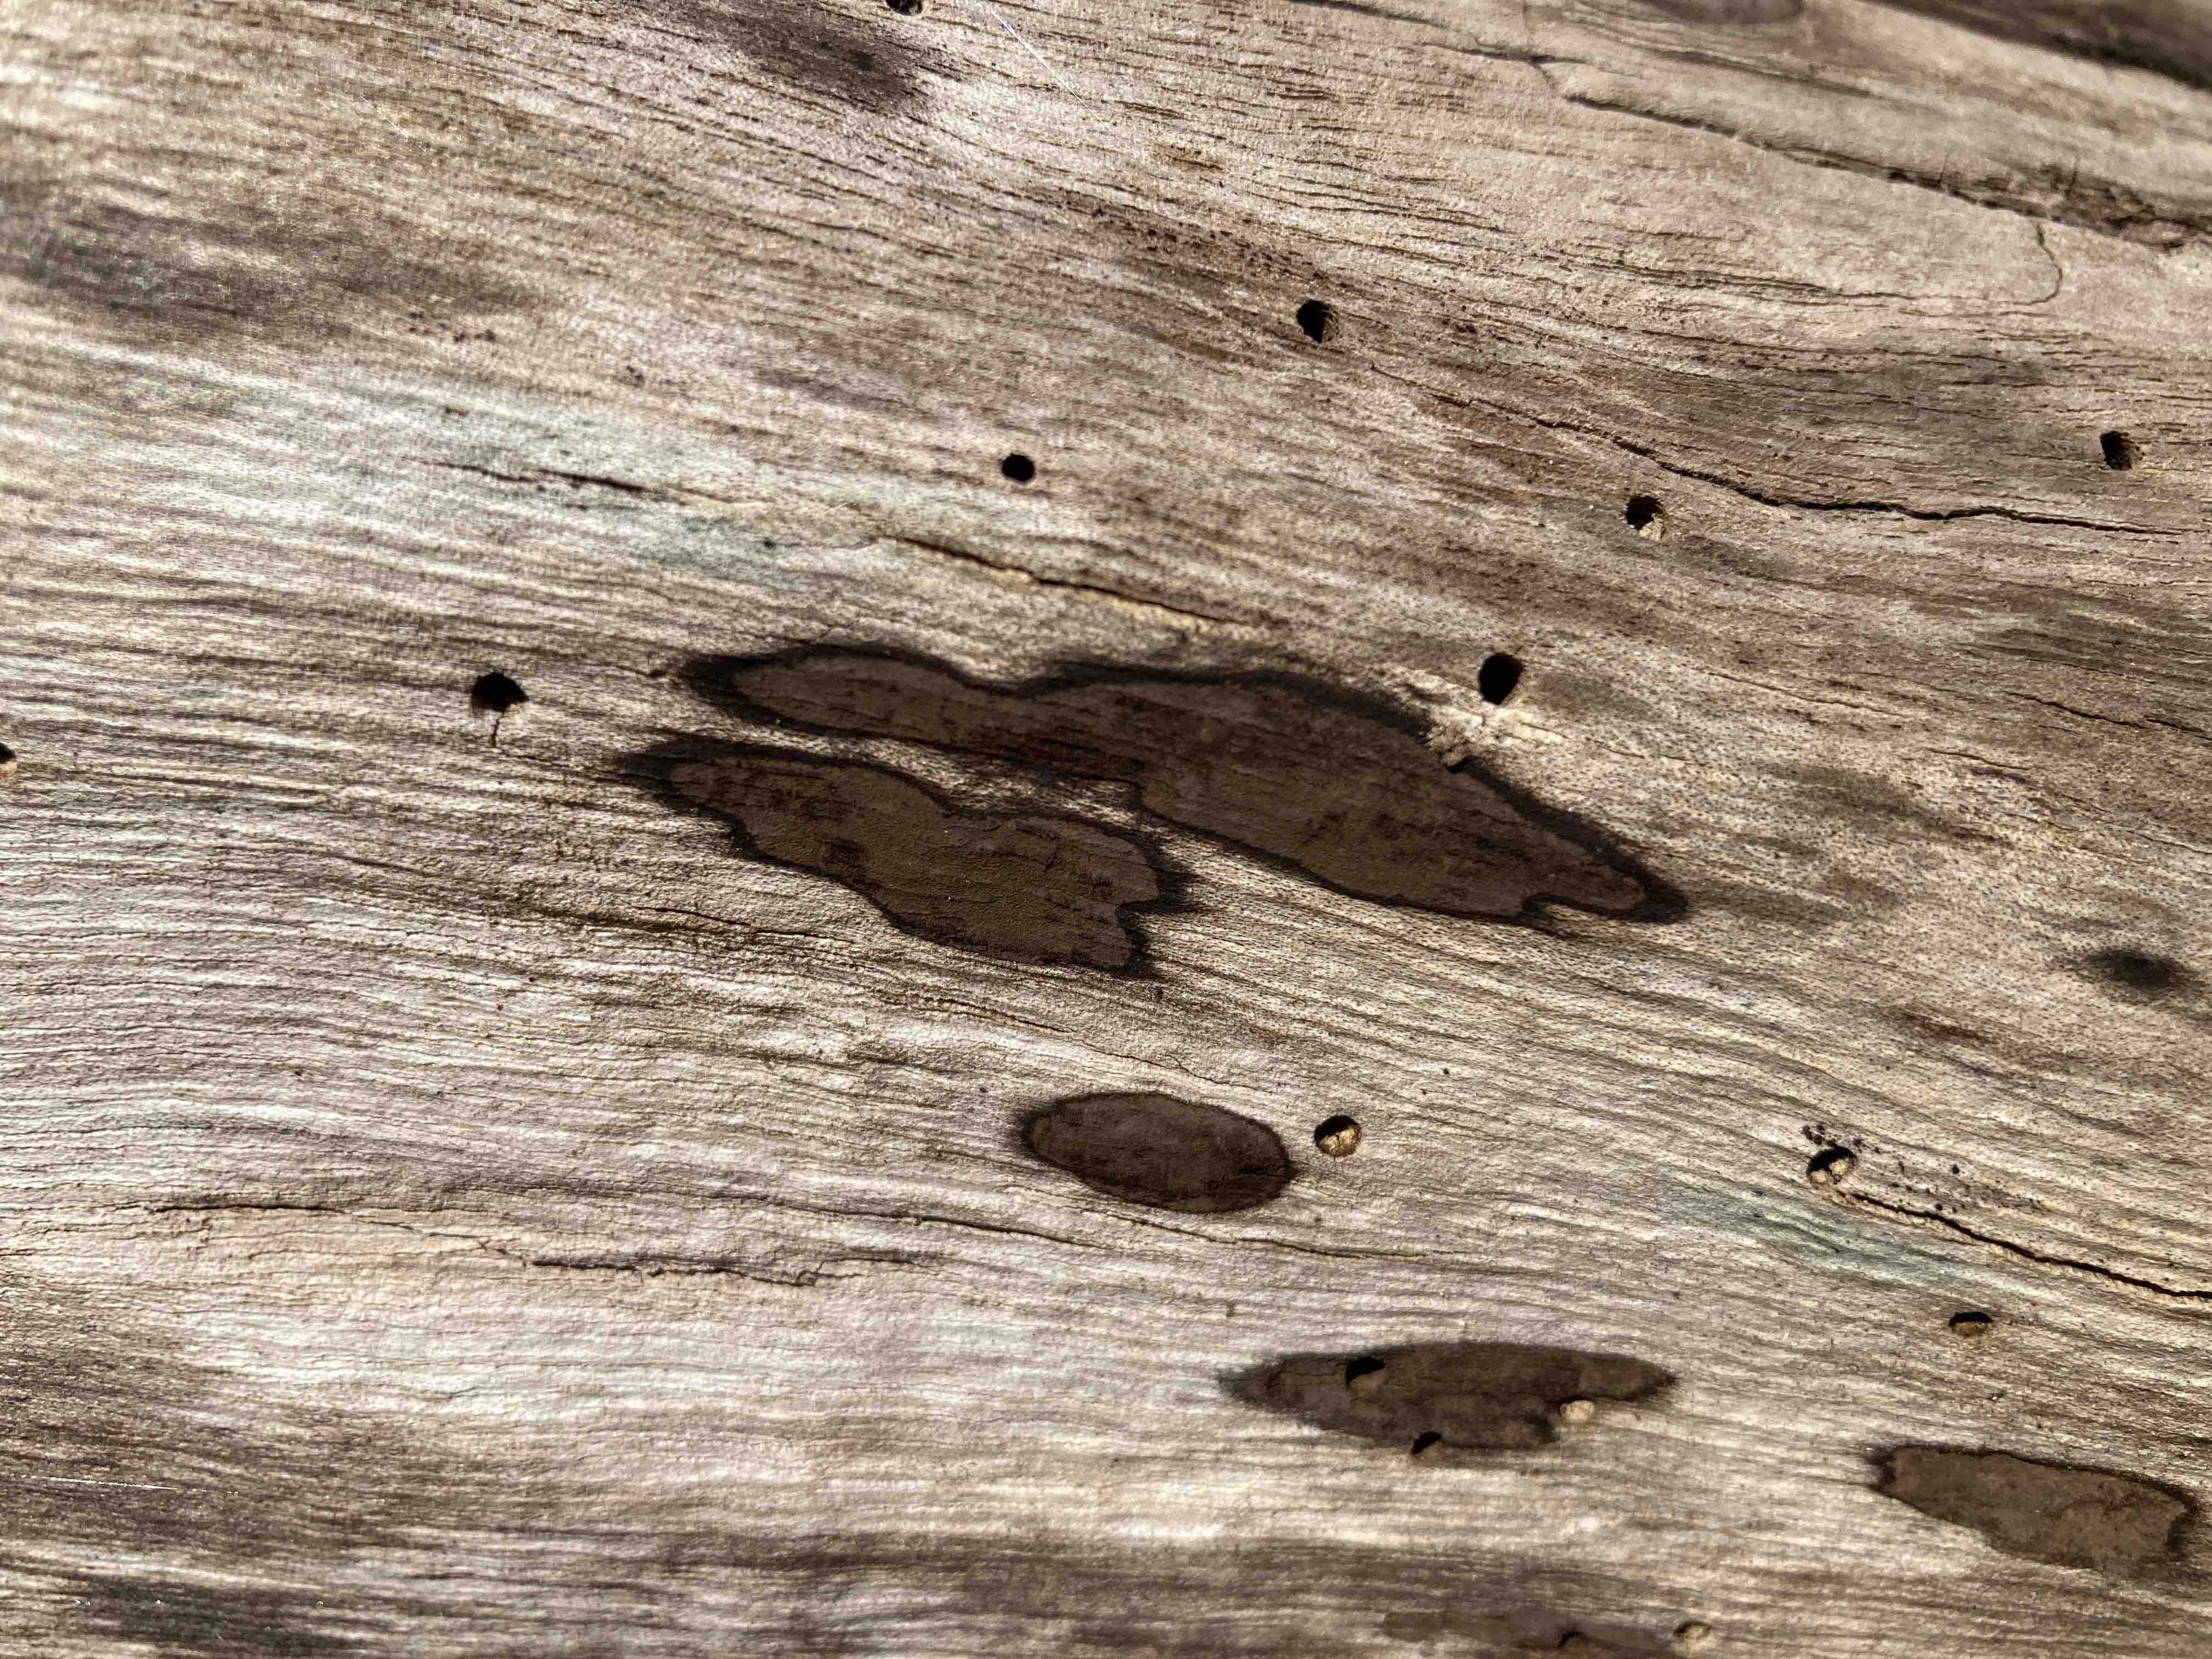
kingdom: Fungi
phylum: Ascomycota
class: Sordariomycetes
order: Xylariales
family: Hypoxylaceae
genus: Hypoxylon
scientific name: Hypoxylon petriniae
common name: nedsænket kulbær
